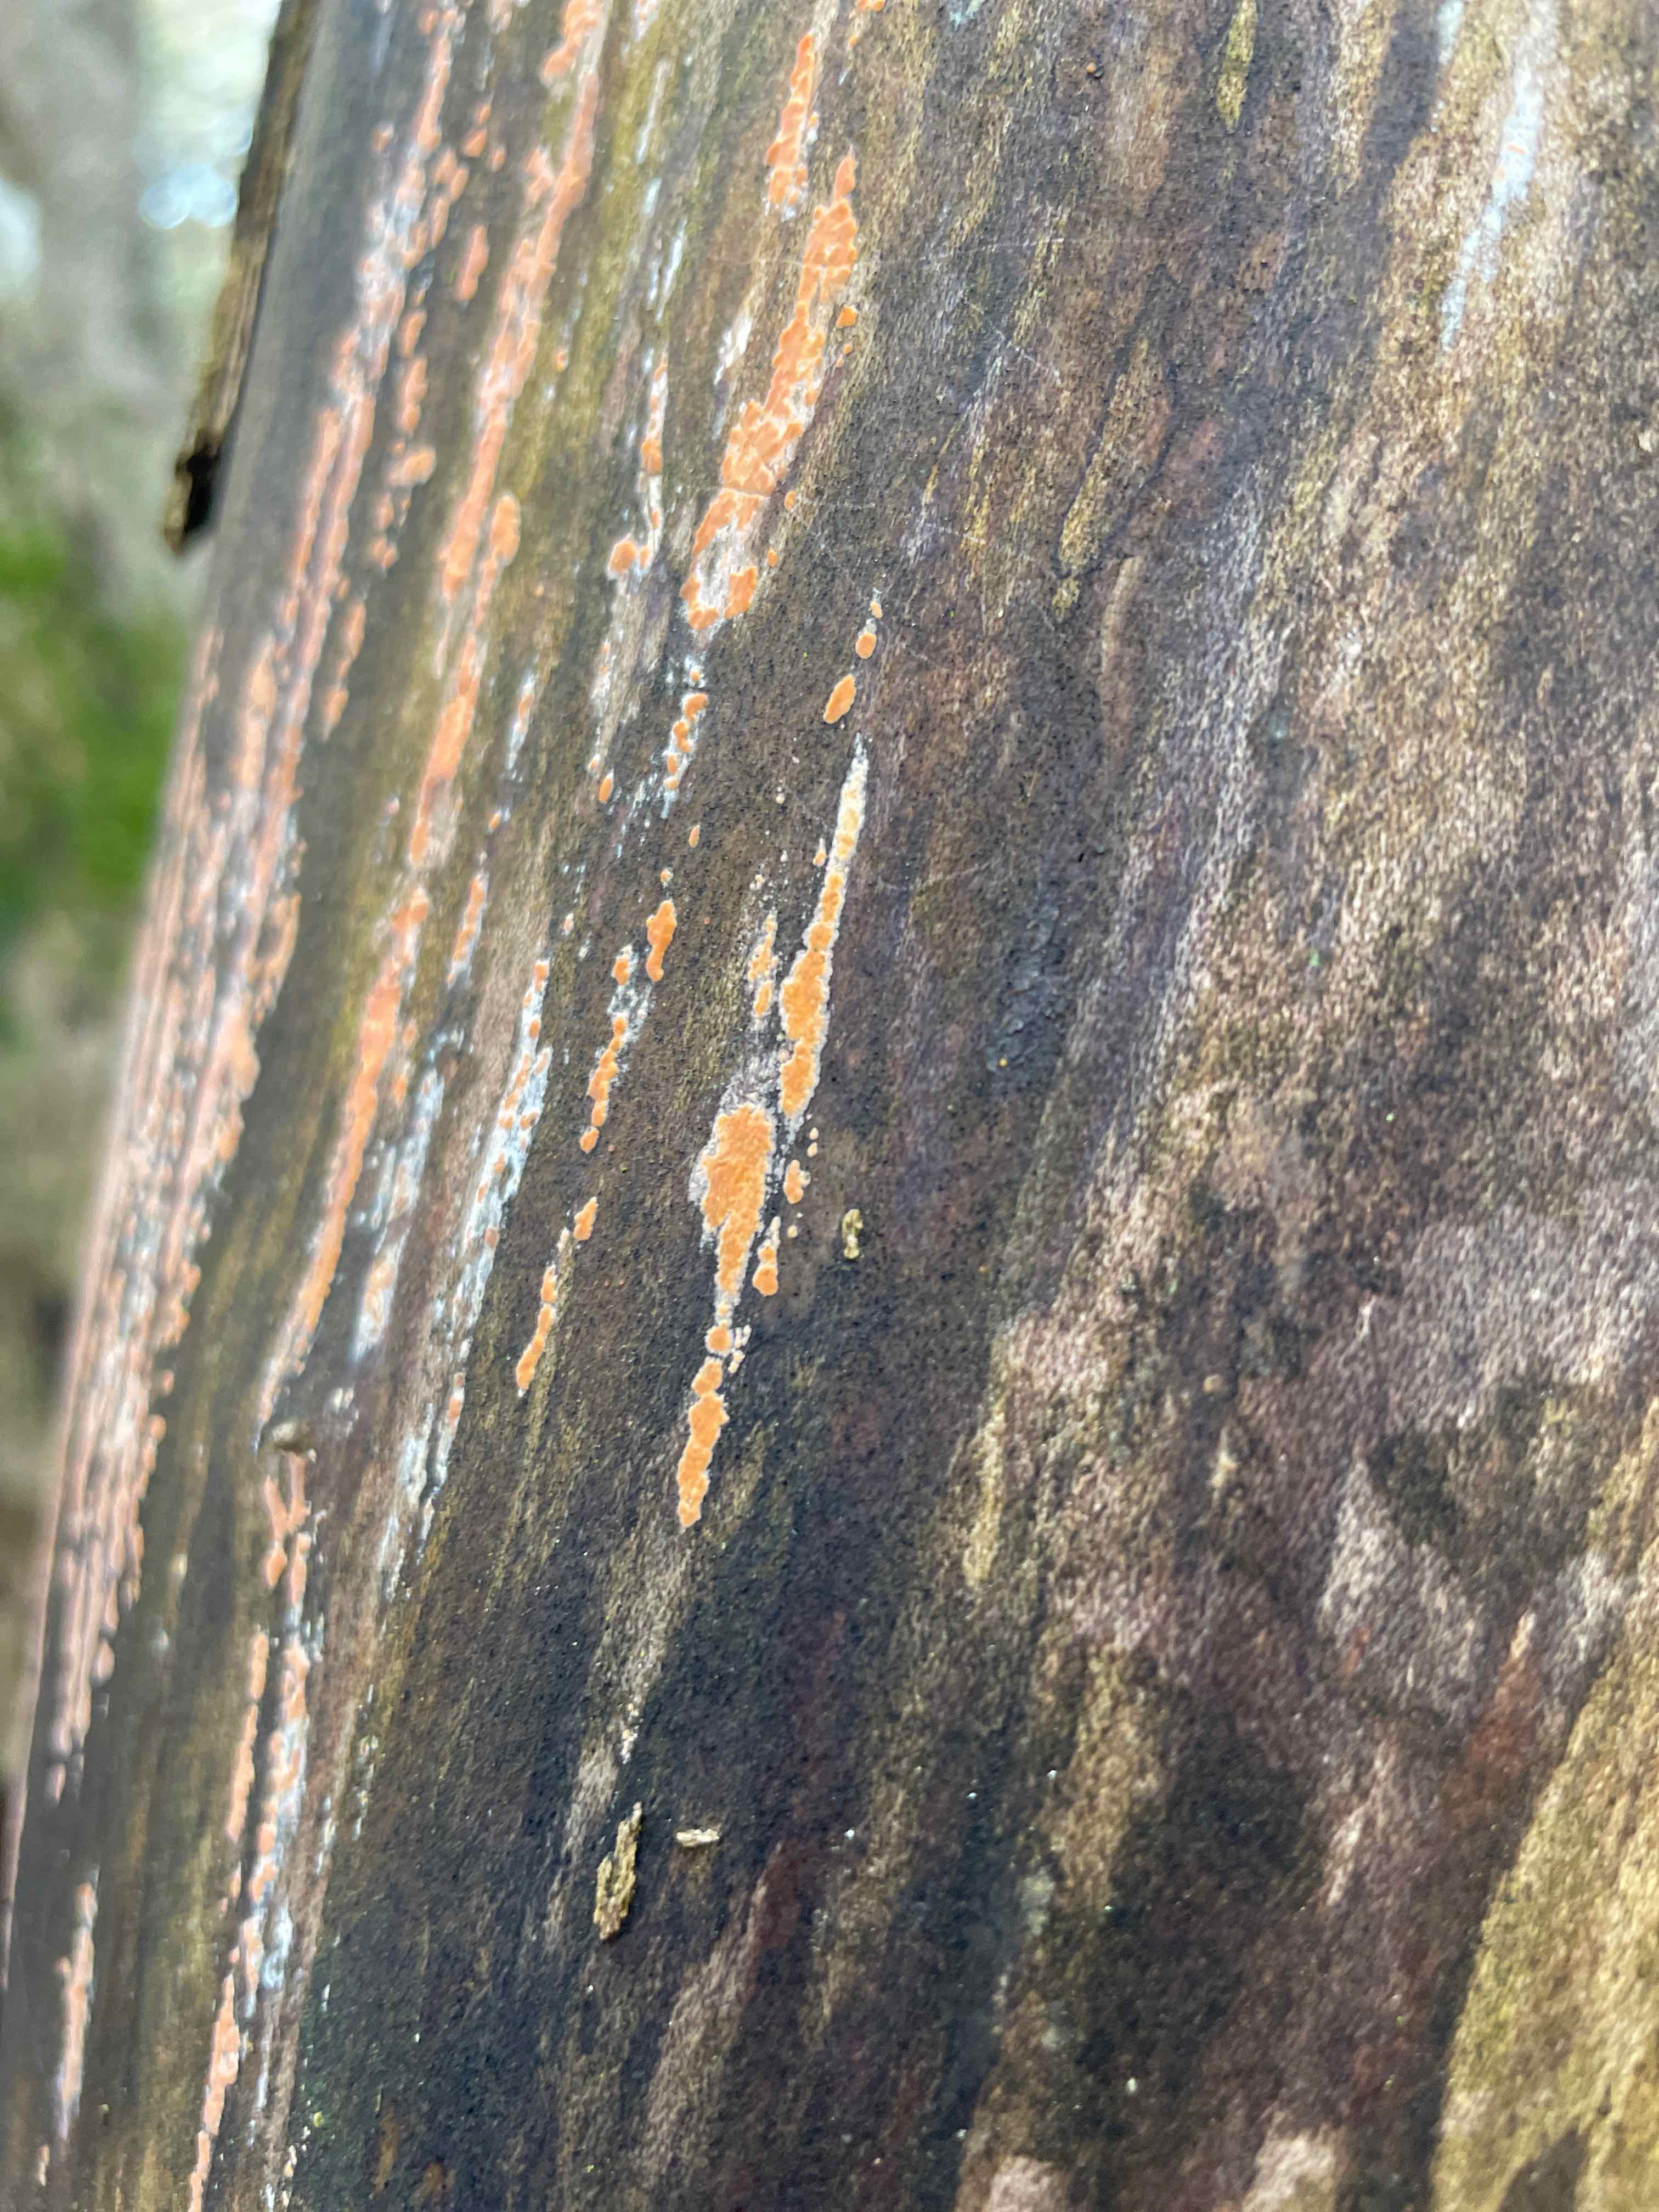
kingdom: Fungi
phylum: Basidiomycota
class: Agaricomycetes
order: Russulales
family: Peniophoraceae
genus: Peniophora
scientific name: Peniophora incarnata
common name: laksefarvet voksskind
